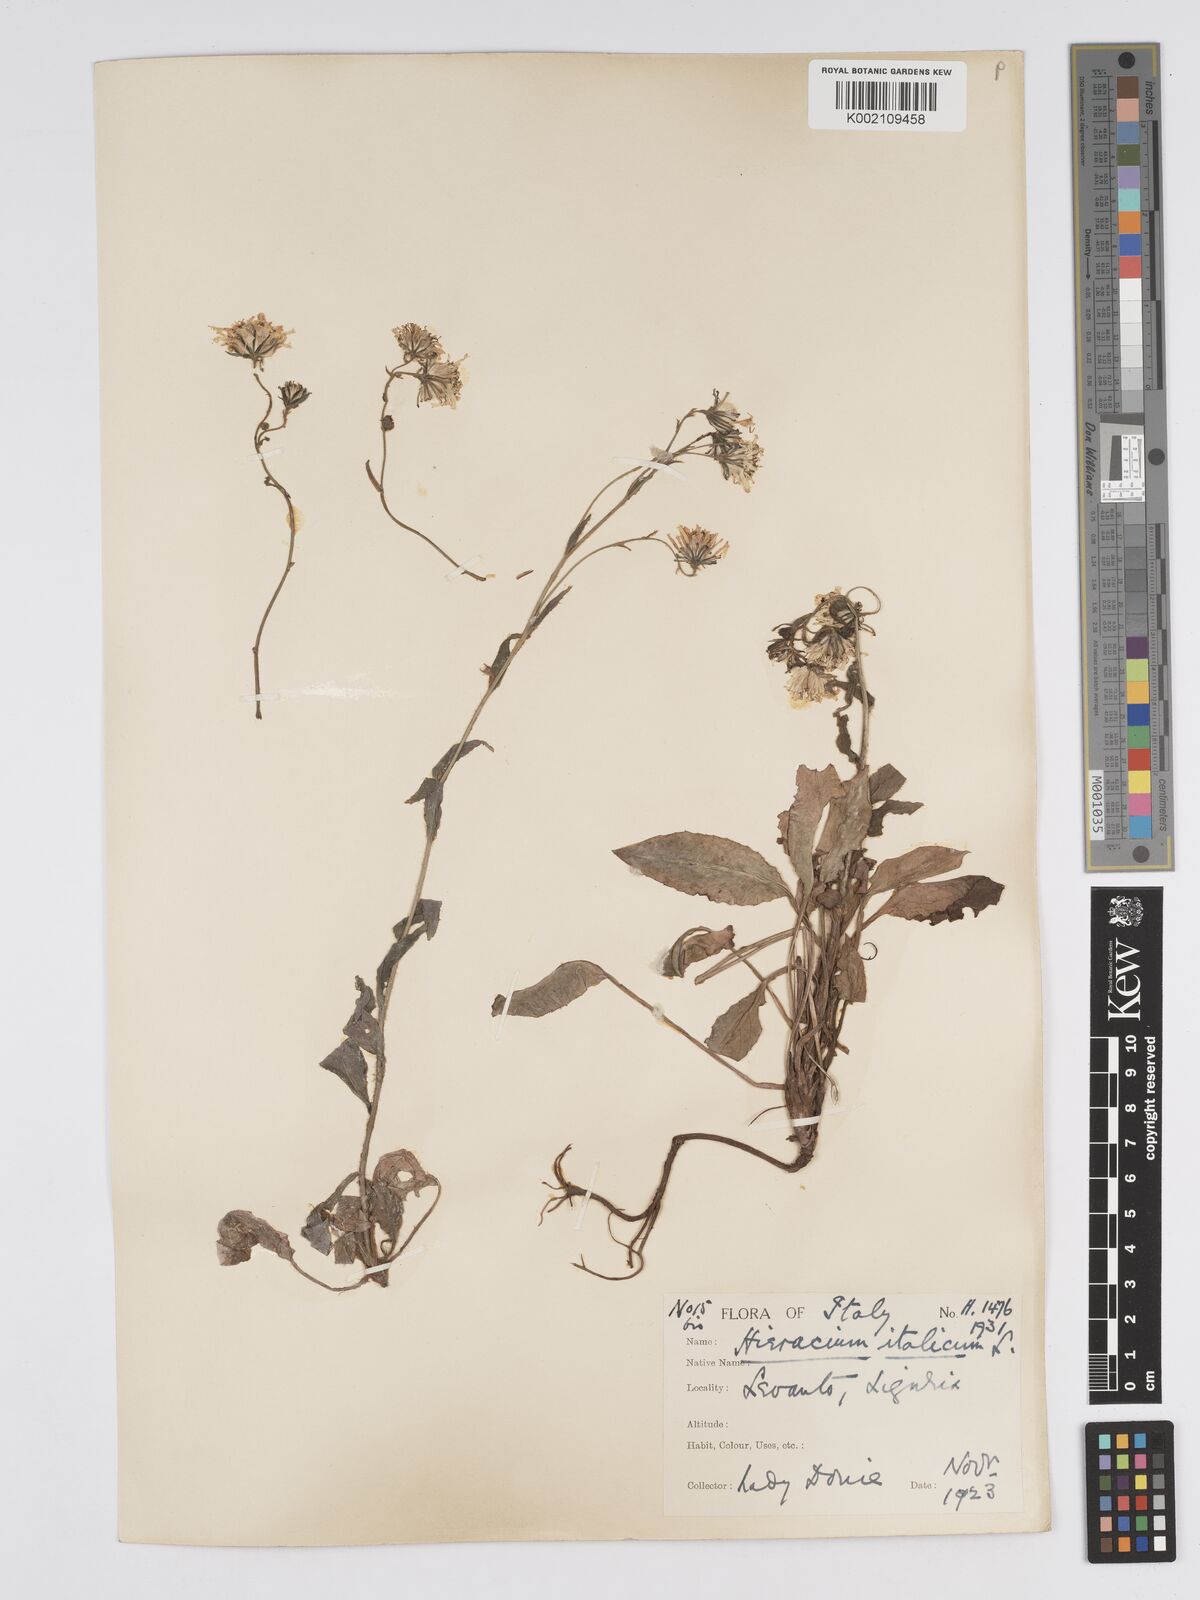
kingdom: Plantae
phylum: Tracheophyta
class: Magnoliopsida
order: Asterales
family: Asteraceae
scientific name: Asteraceae
